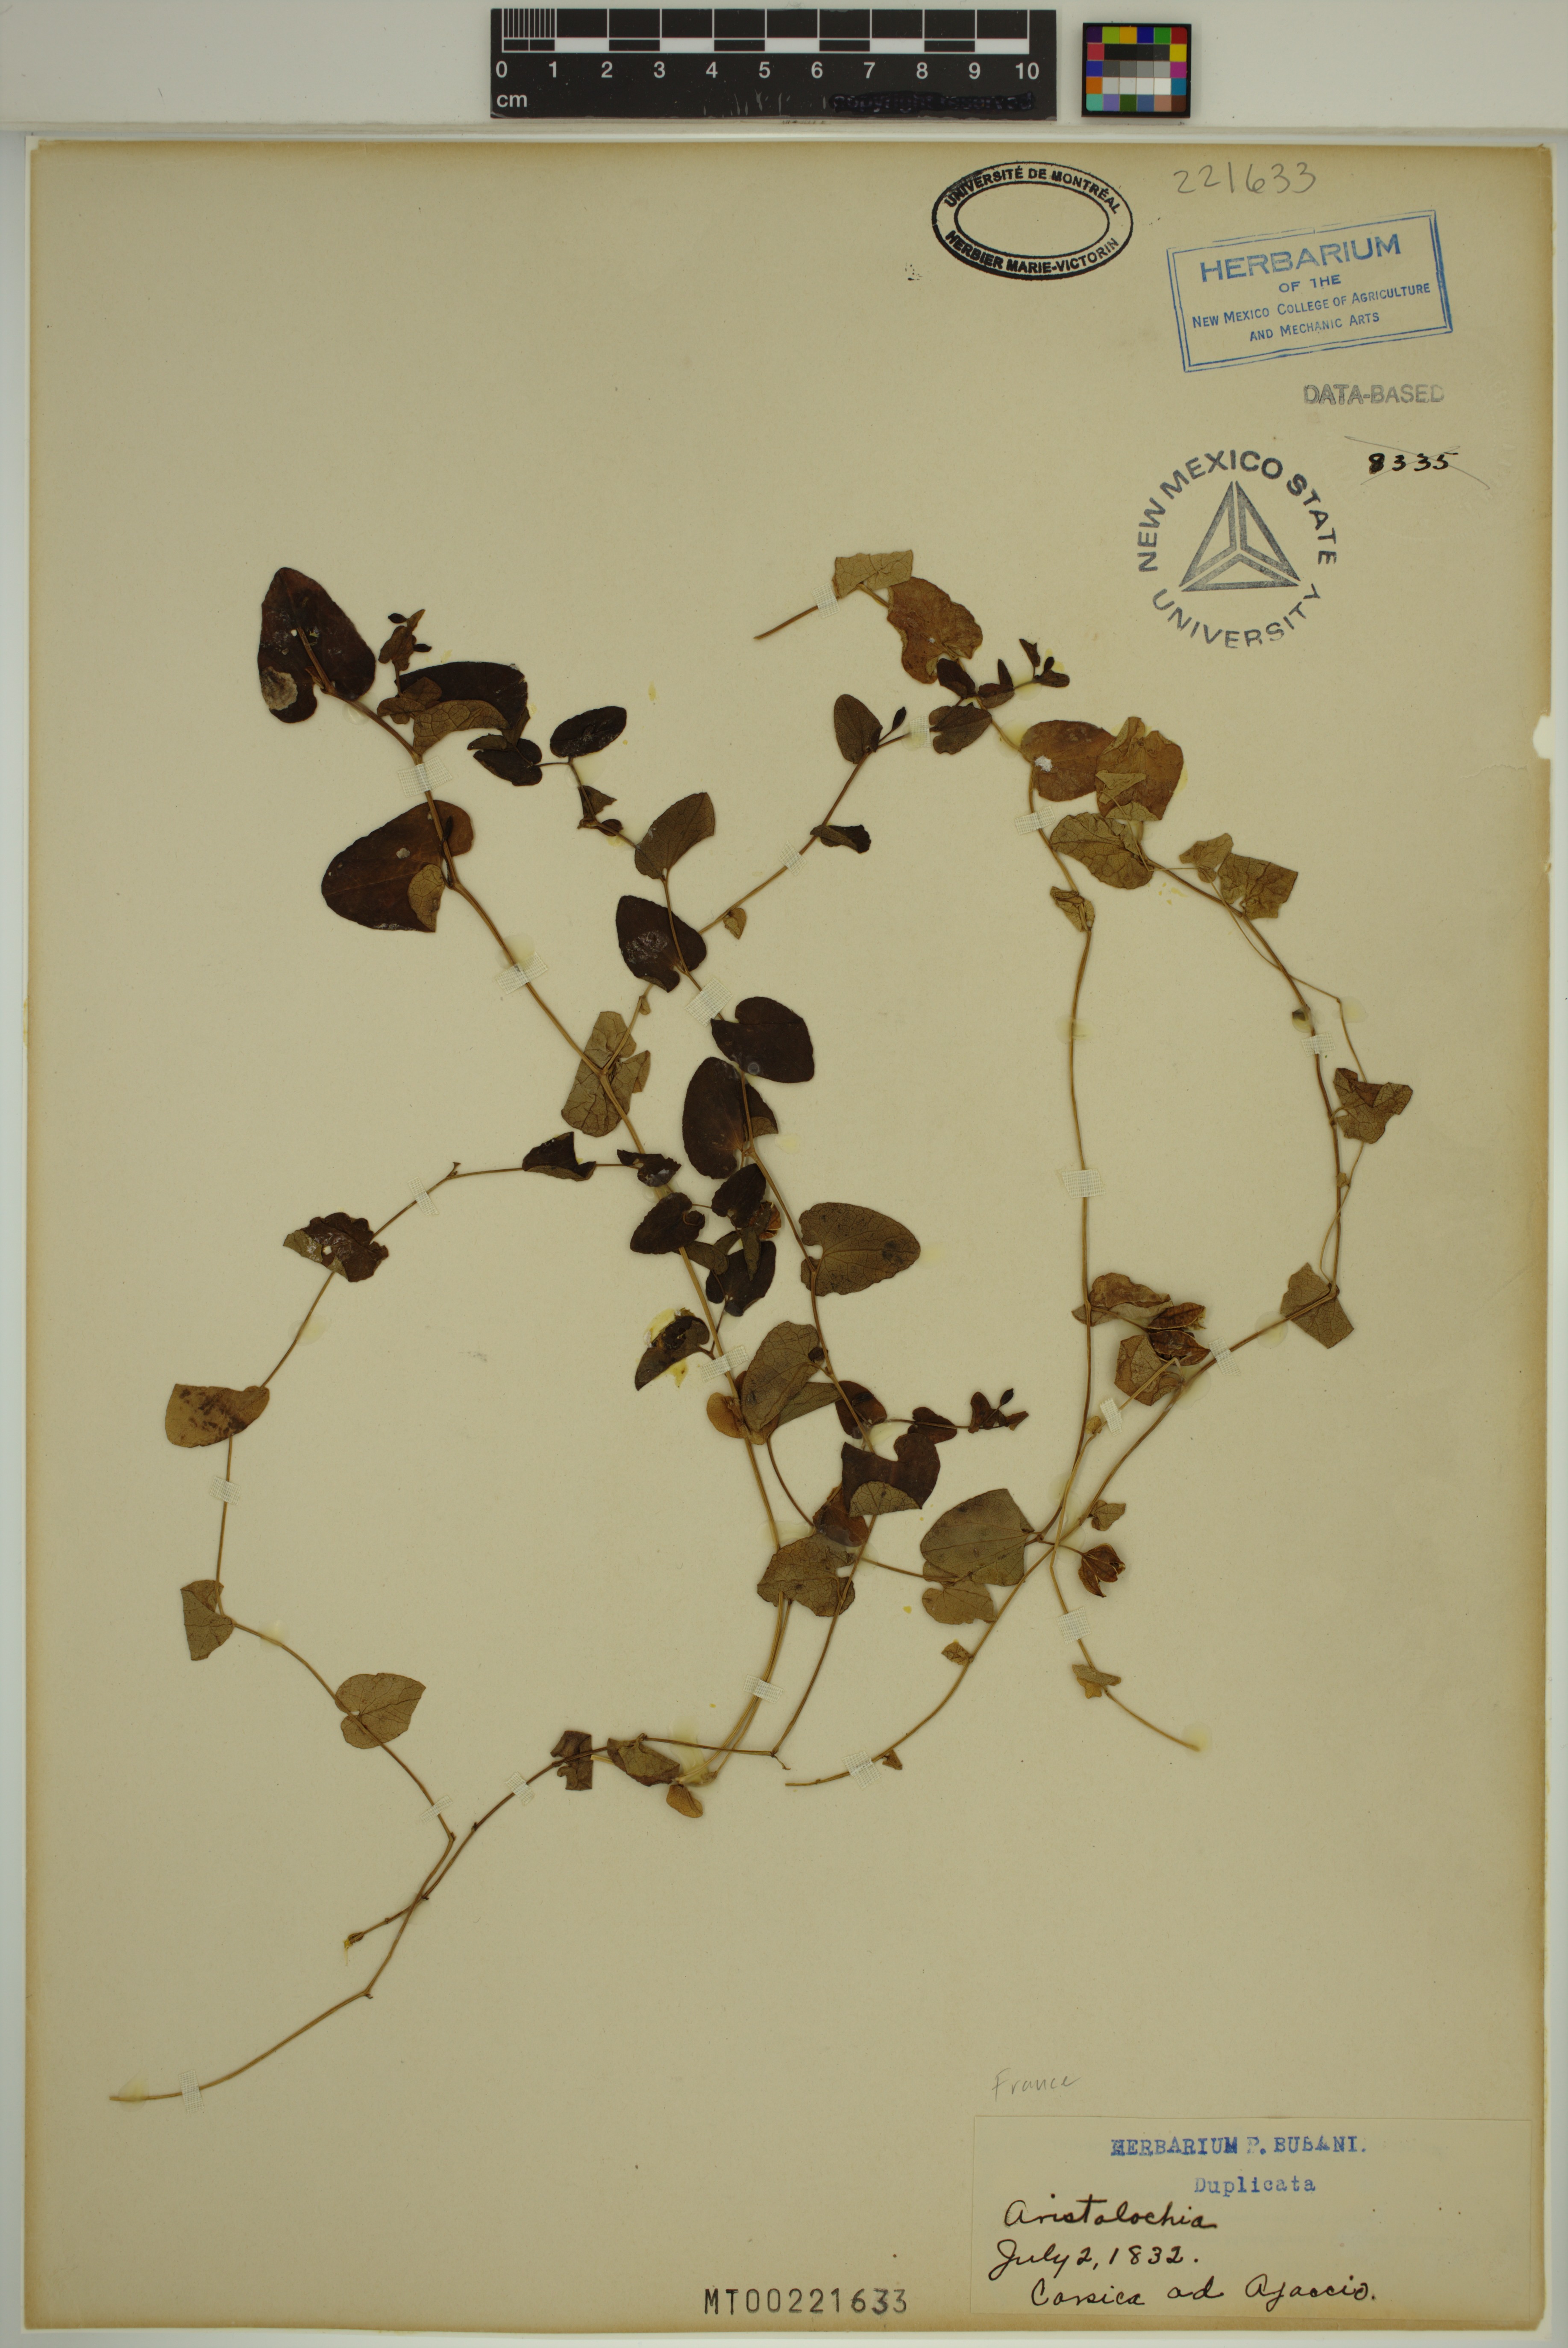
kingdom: Plantae
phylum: Tracheophyta
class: Magnoliopsida
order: Piperales
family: Aristolochiaceae
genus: Aristolochia
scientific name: Aristolochia
